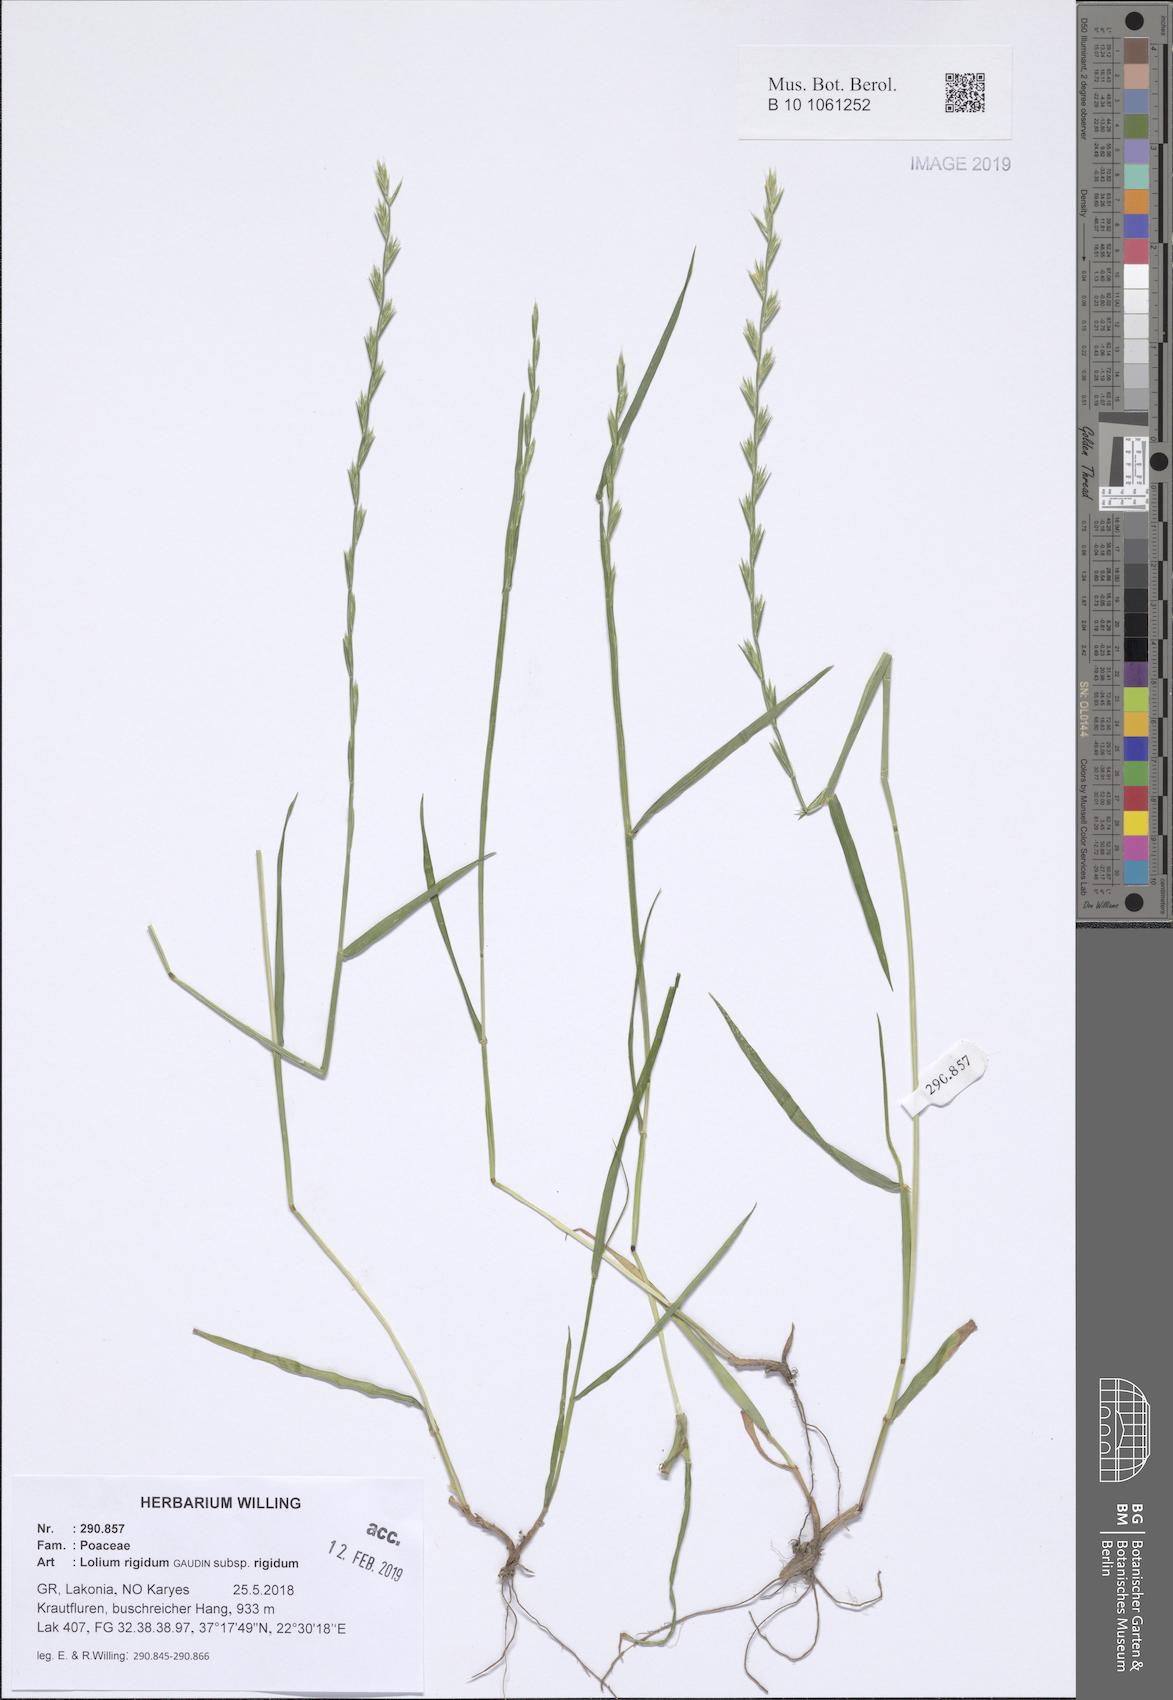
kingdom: Plantae
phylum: Tracheophyta
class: Liliopsida
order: Poales
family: Poaceae
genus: Lolium
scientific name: Lolium rigidum
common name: Wimmera ryegrass
